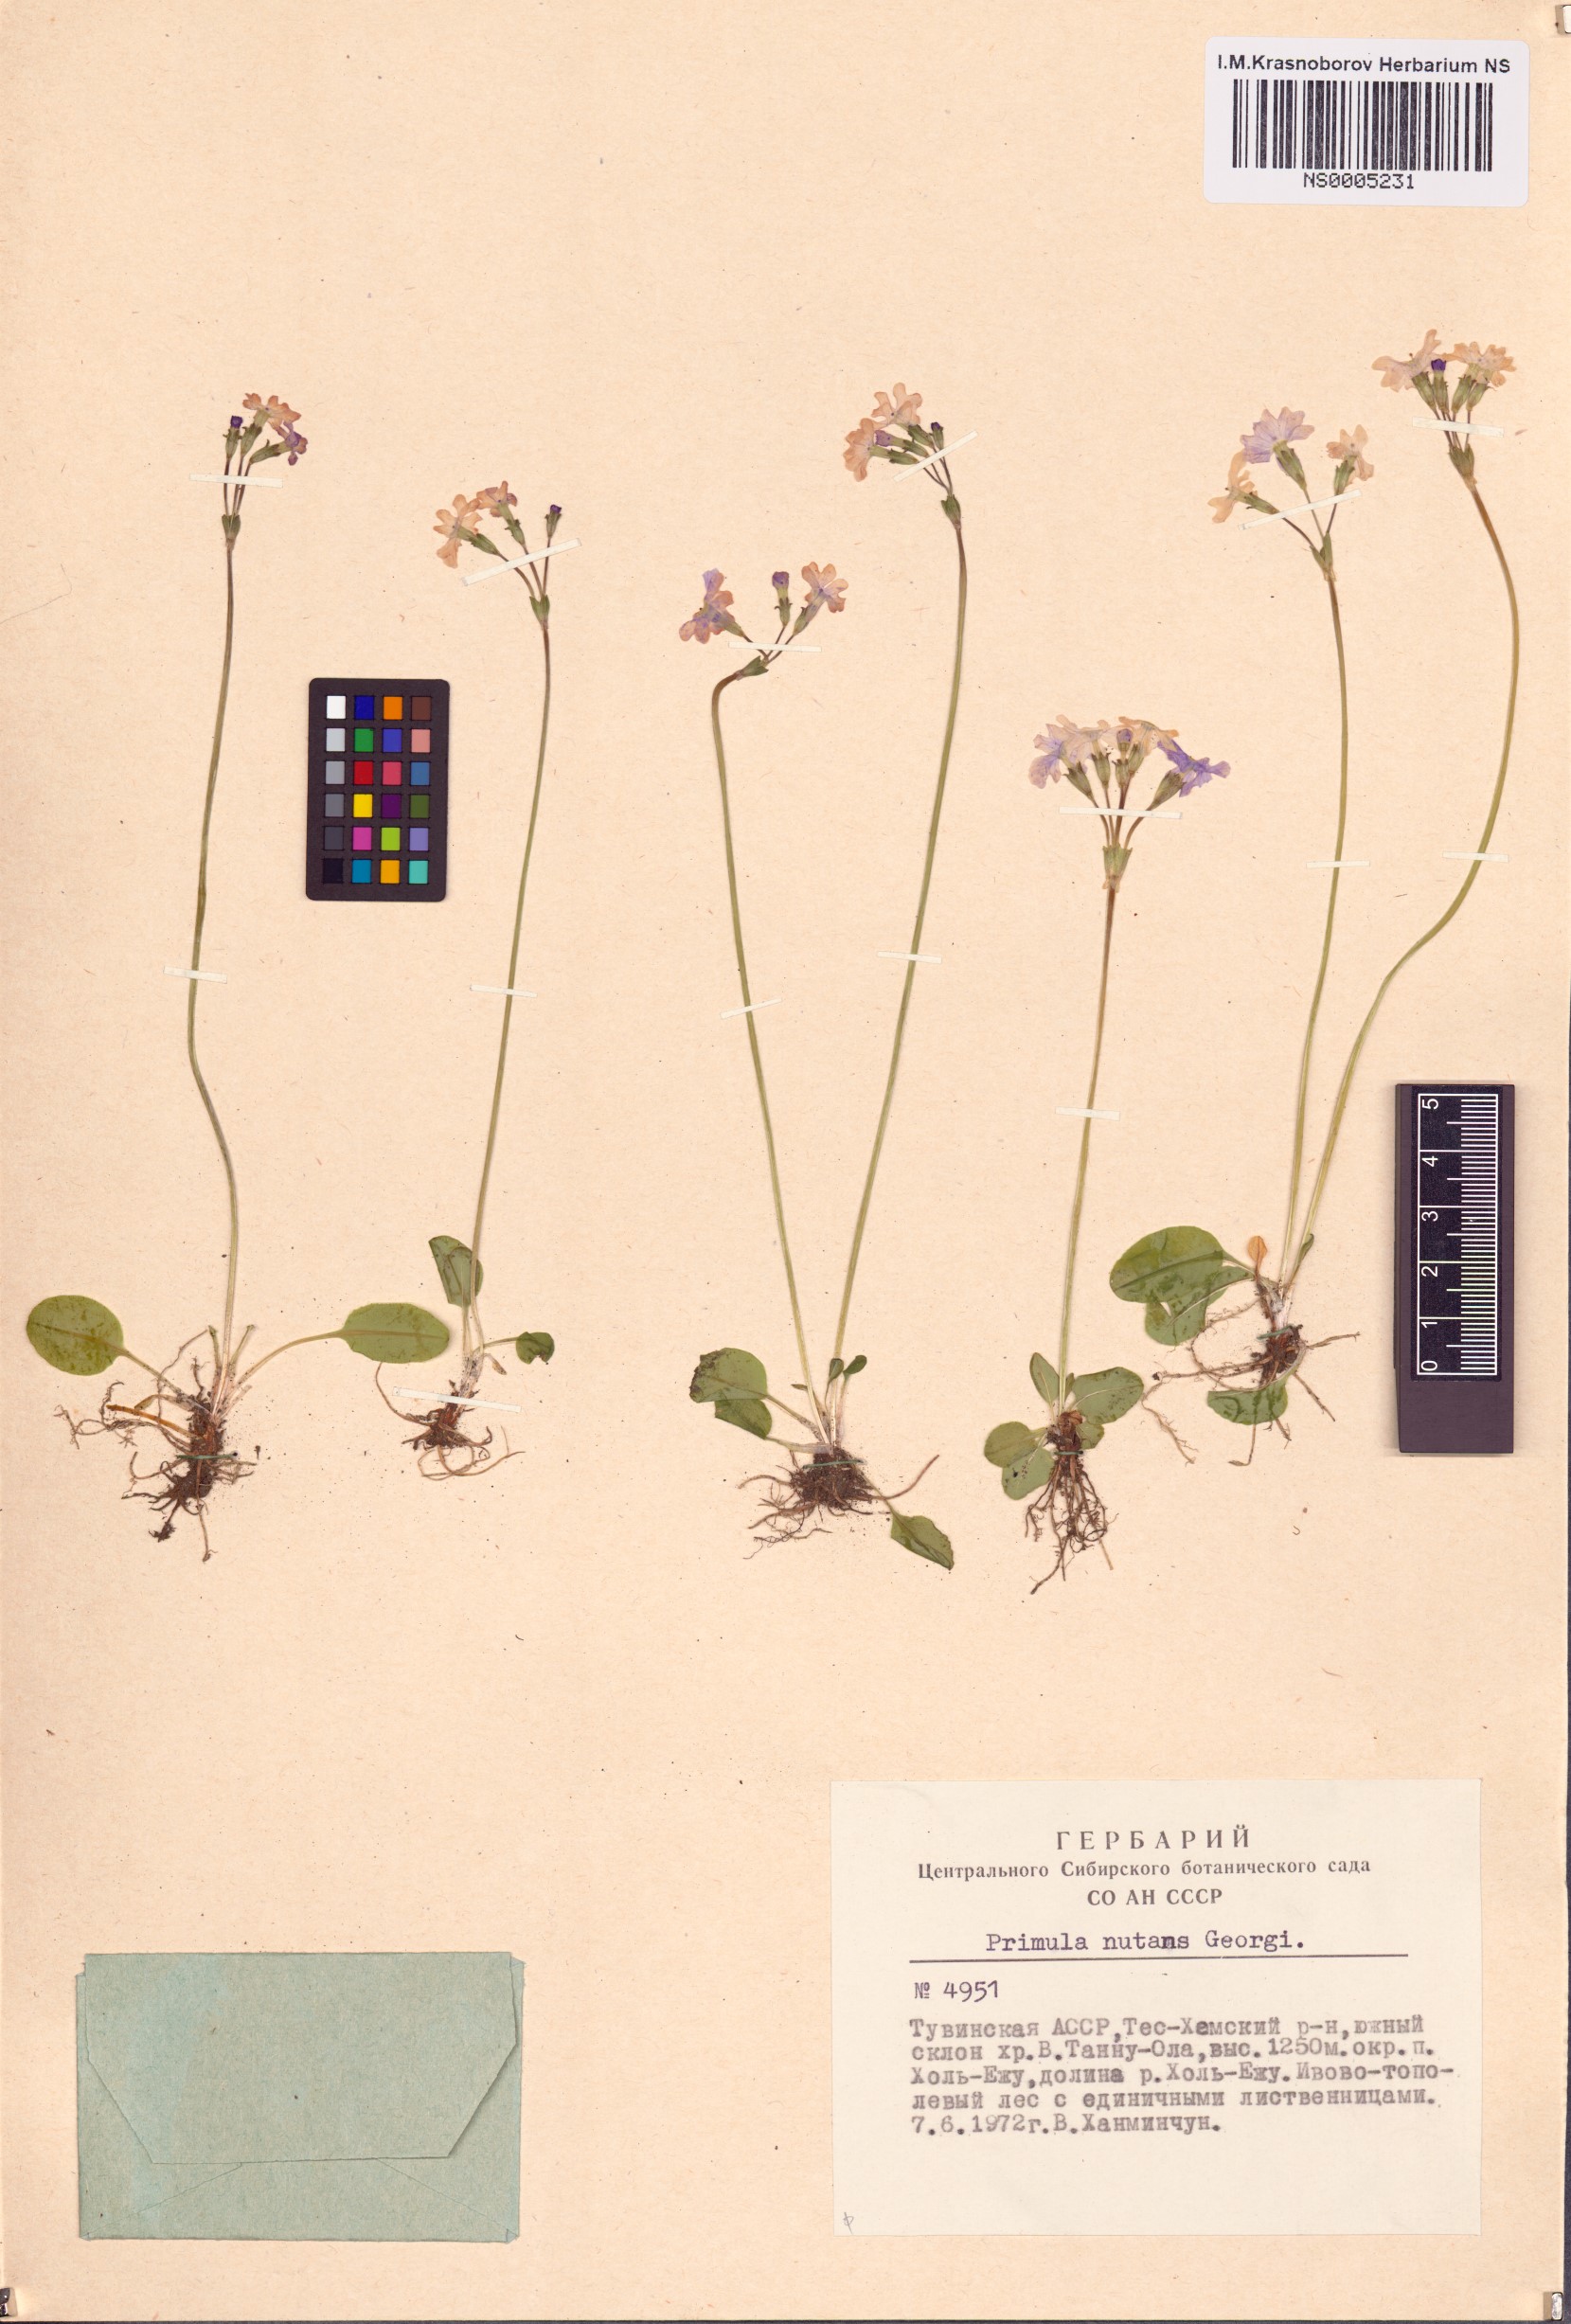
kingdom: Plantae
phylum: Tracheophyta
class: Magnoliopsida
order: Ericales
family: Primulaceae
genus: Primula
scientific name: Primula nutans
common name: Siberian primrose
